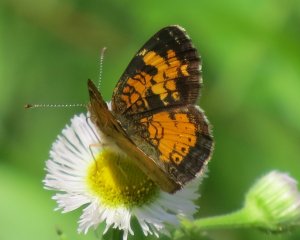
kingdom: Animalia
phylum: Arthropoda
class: Insecta
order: Lepidoptera
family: Nymphalidae
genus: Phyciodes
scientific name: Phyciodes tharos
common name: Northern Crescent
